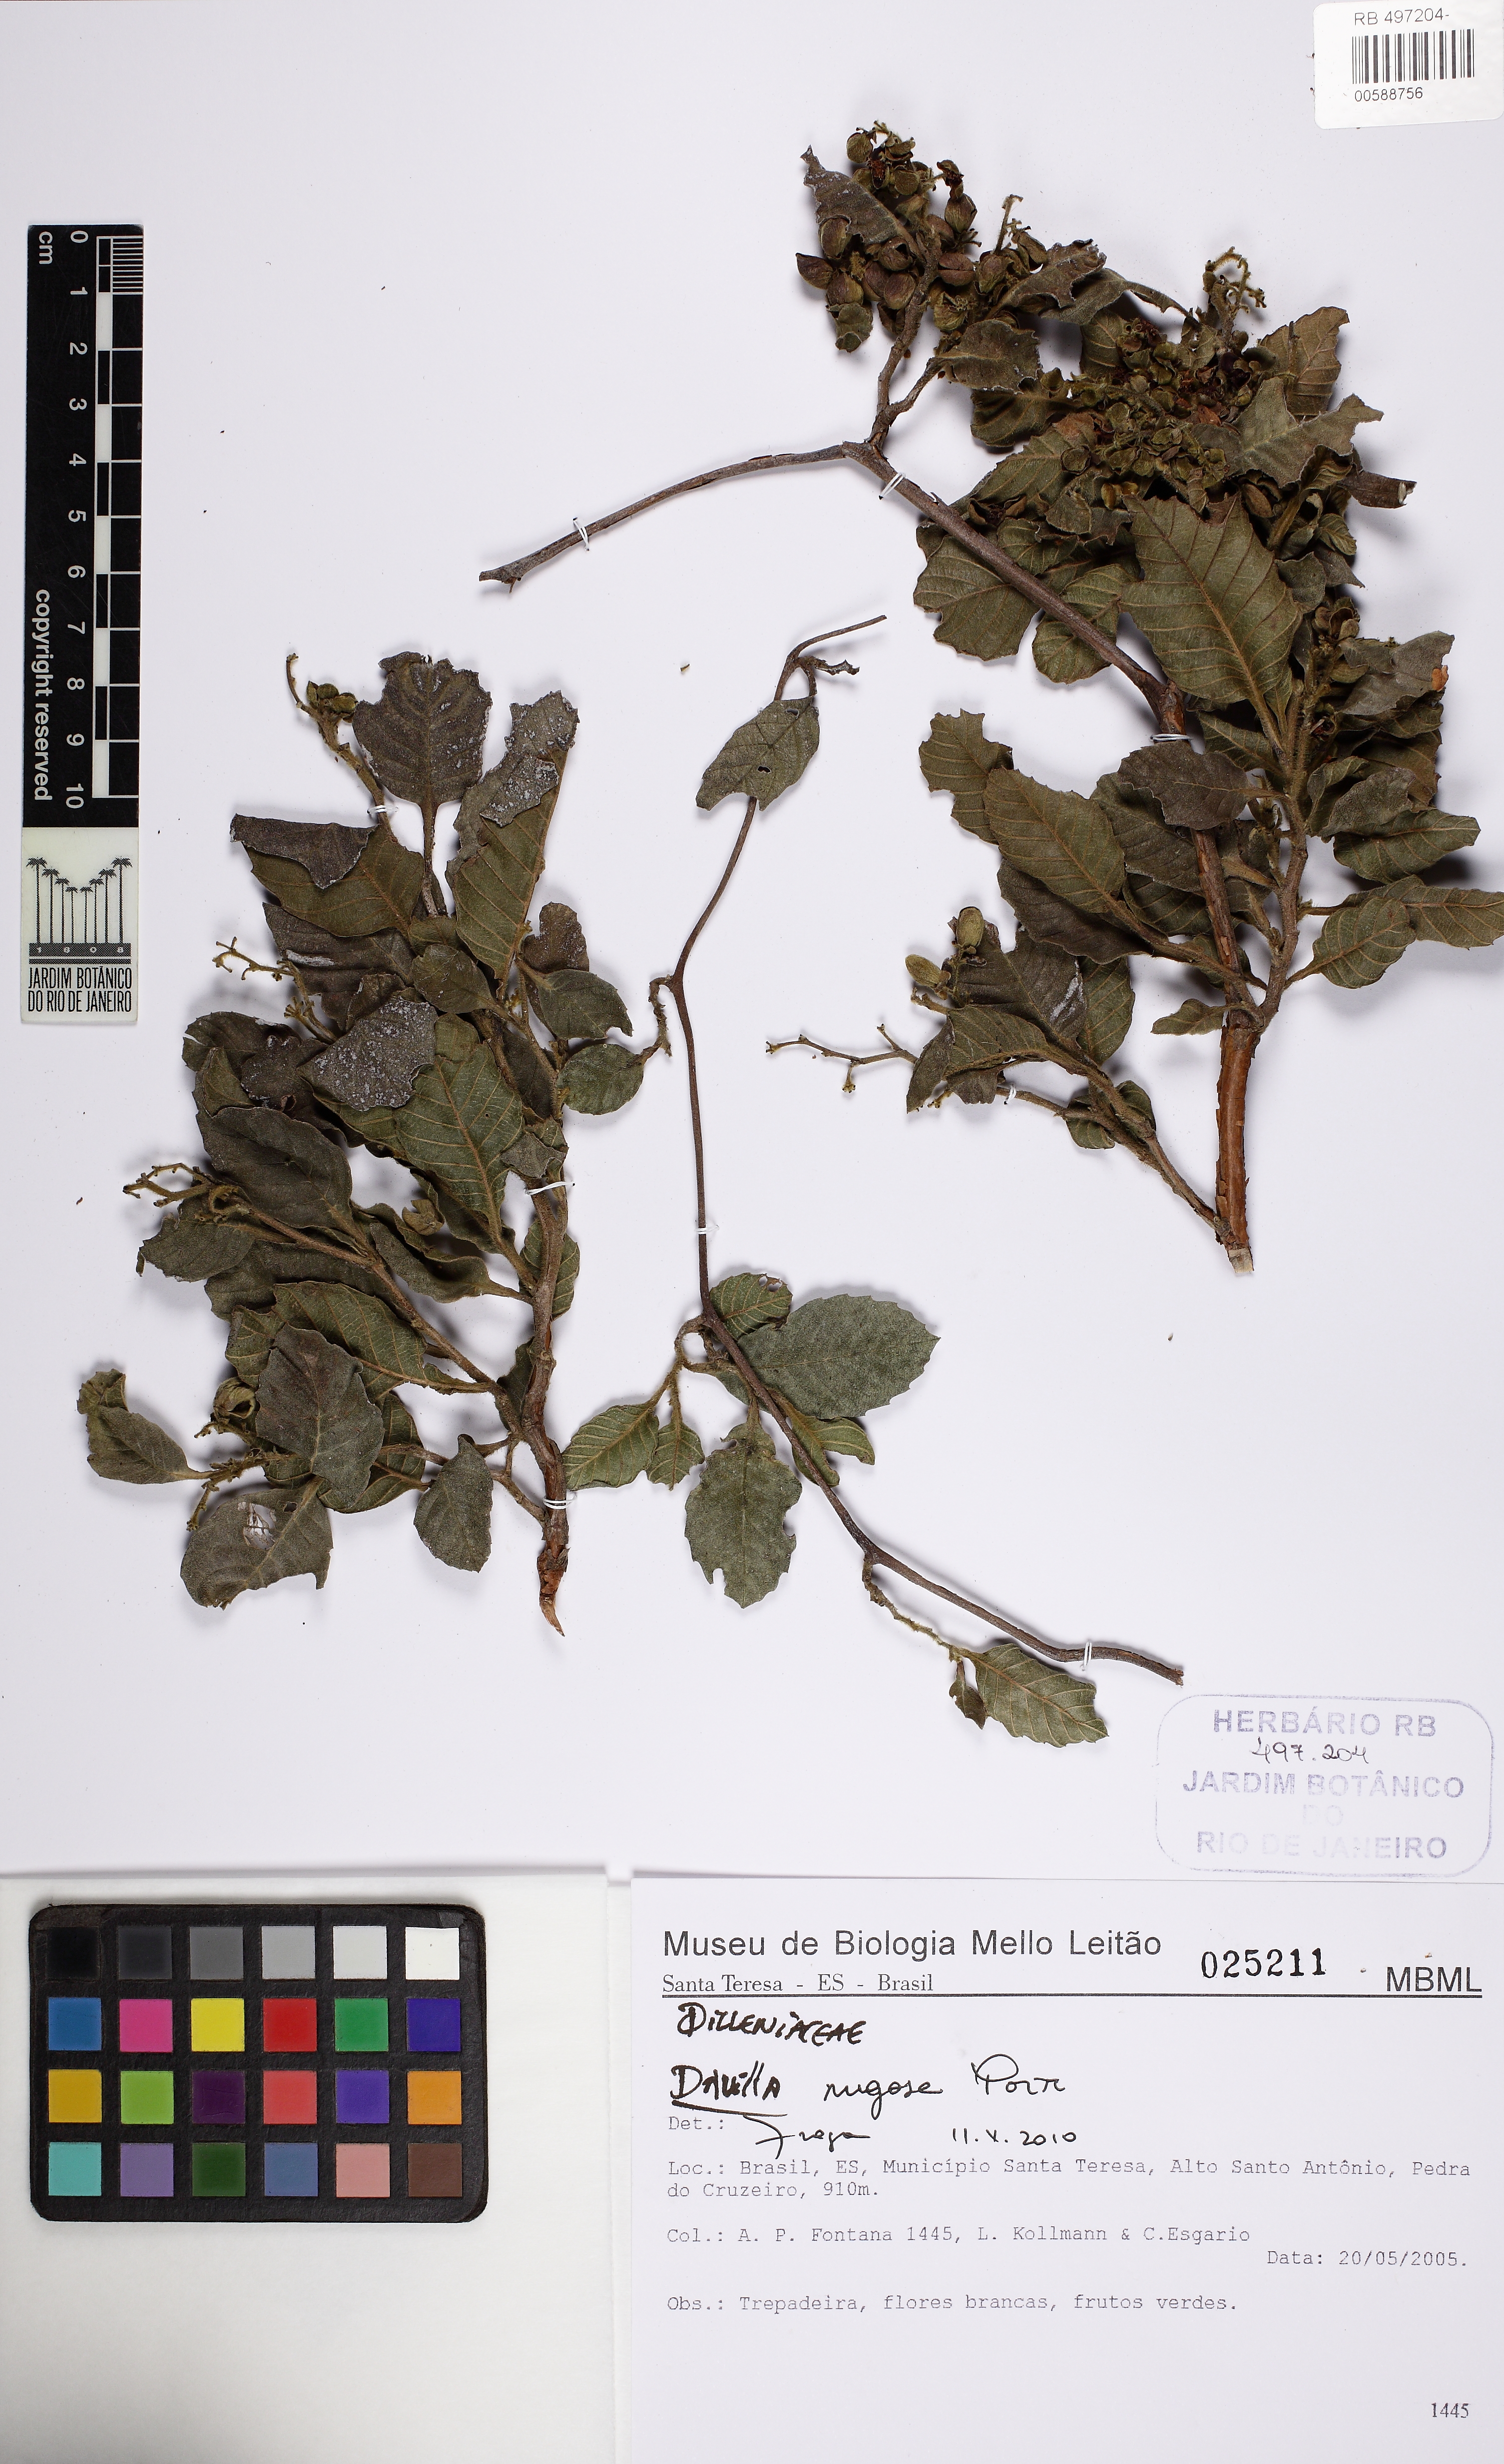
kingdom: Plantae
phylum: Tracheophyta
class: Magnoliopsida
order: Dilleniales
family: Dilleniaceae
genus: Davilla
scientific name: Davilla rugosa
